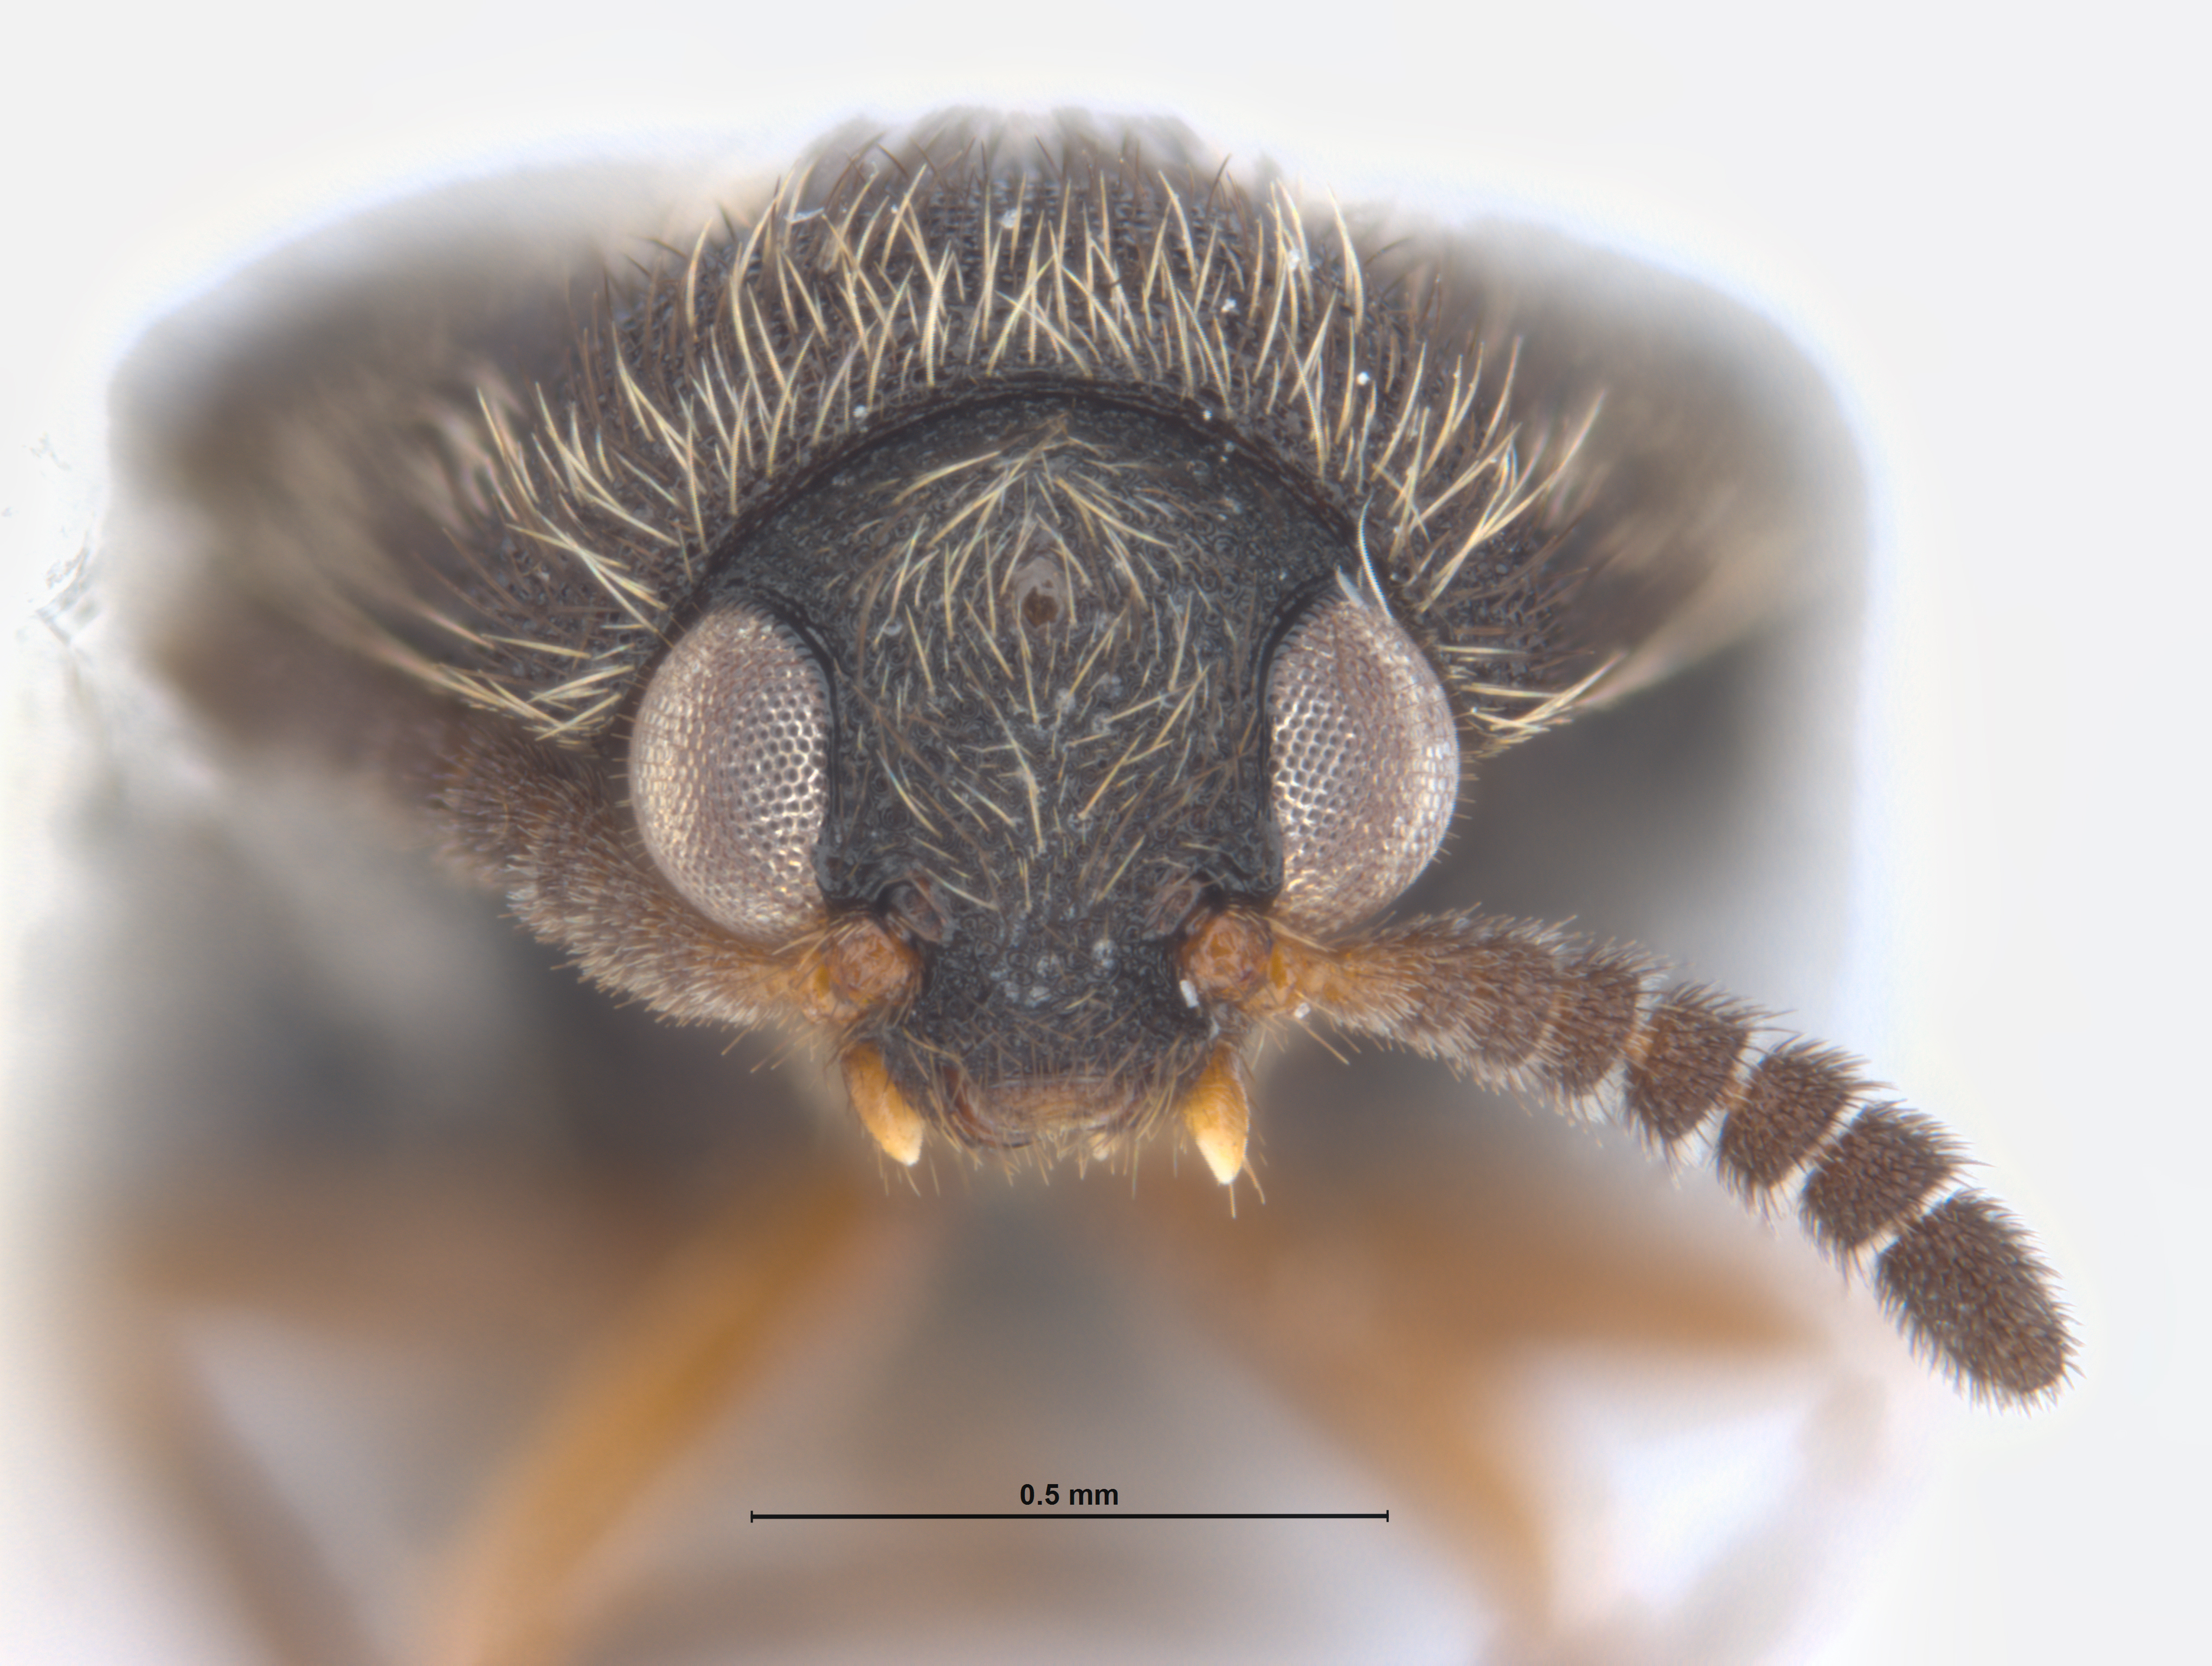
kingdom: Animalia
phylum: Arthropoda
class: Insecta
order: Coleoptera
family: Dermestidae
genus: Trogoderma
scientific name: Trogoderma
